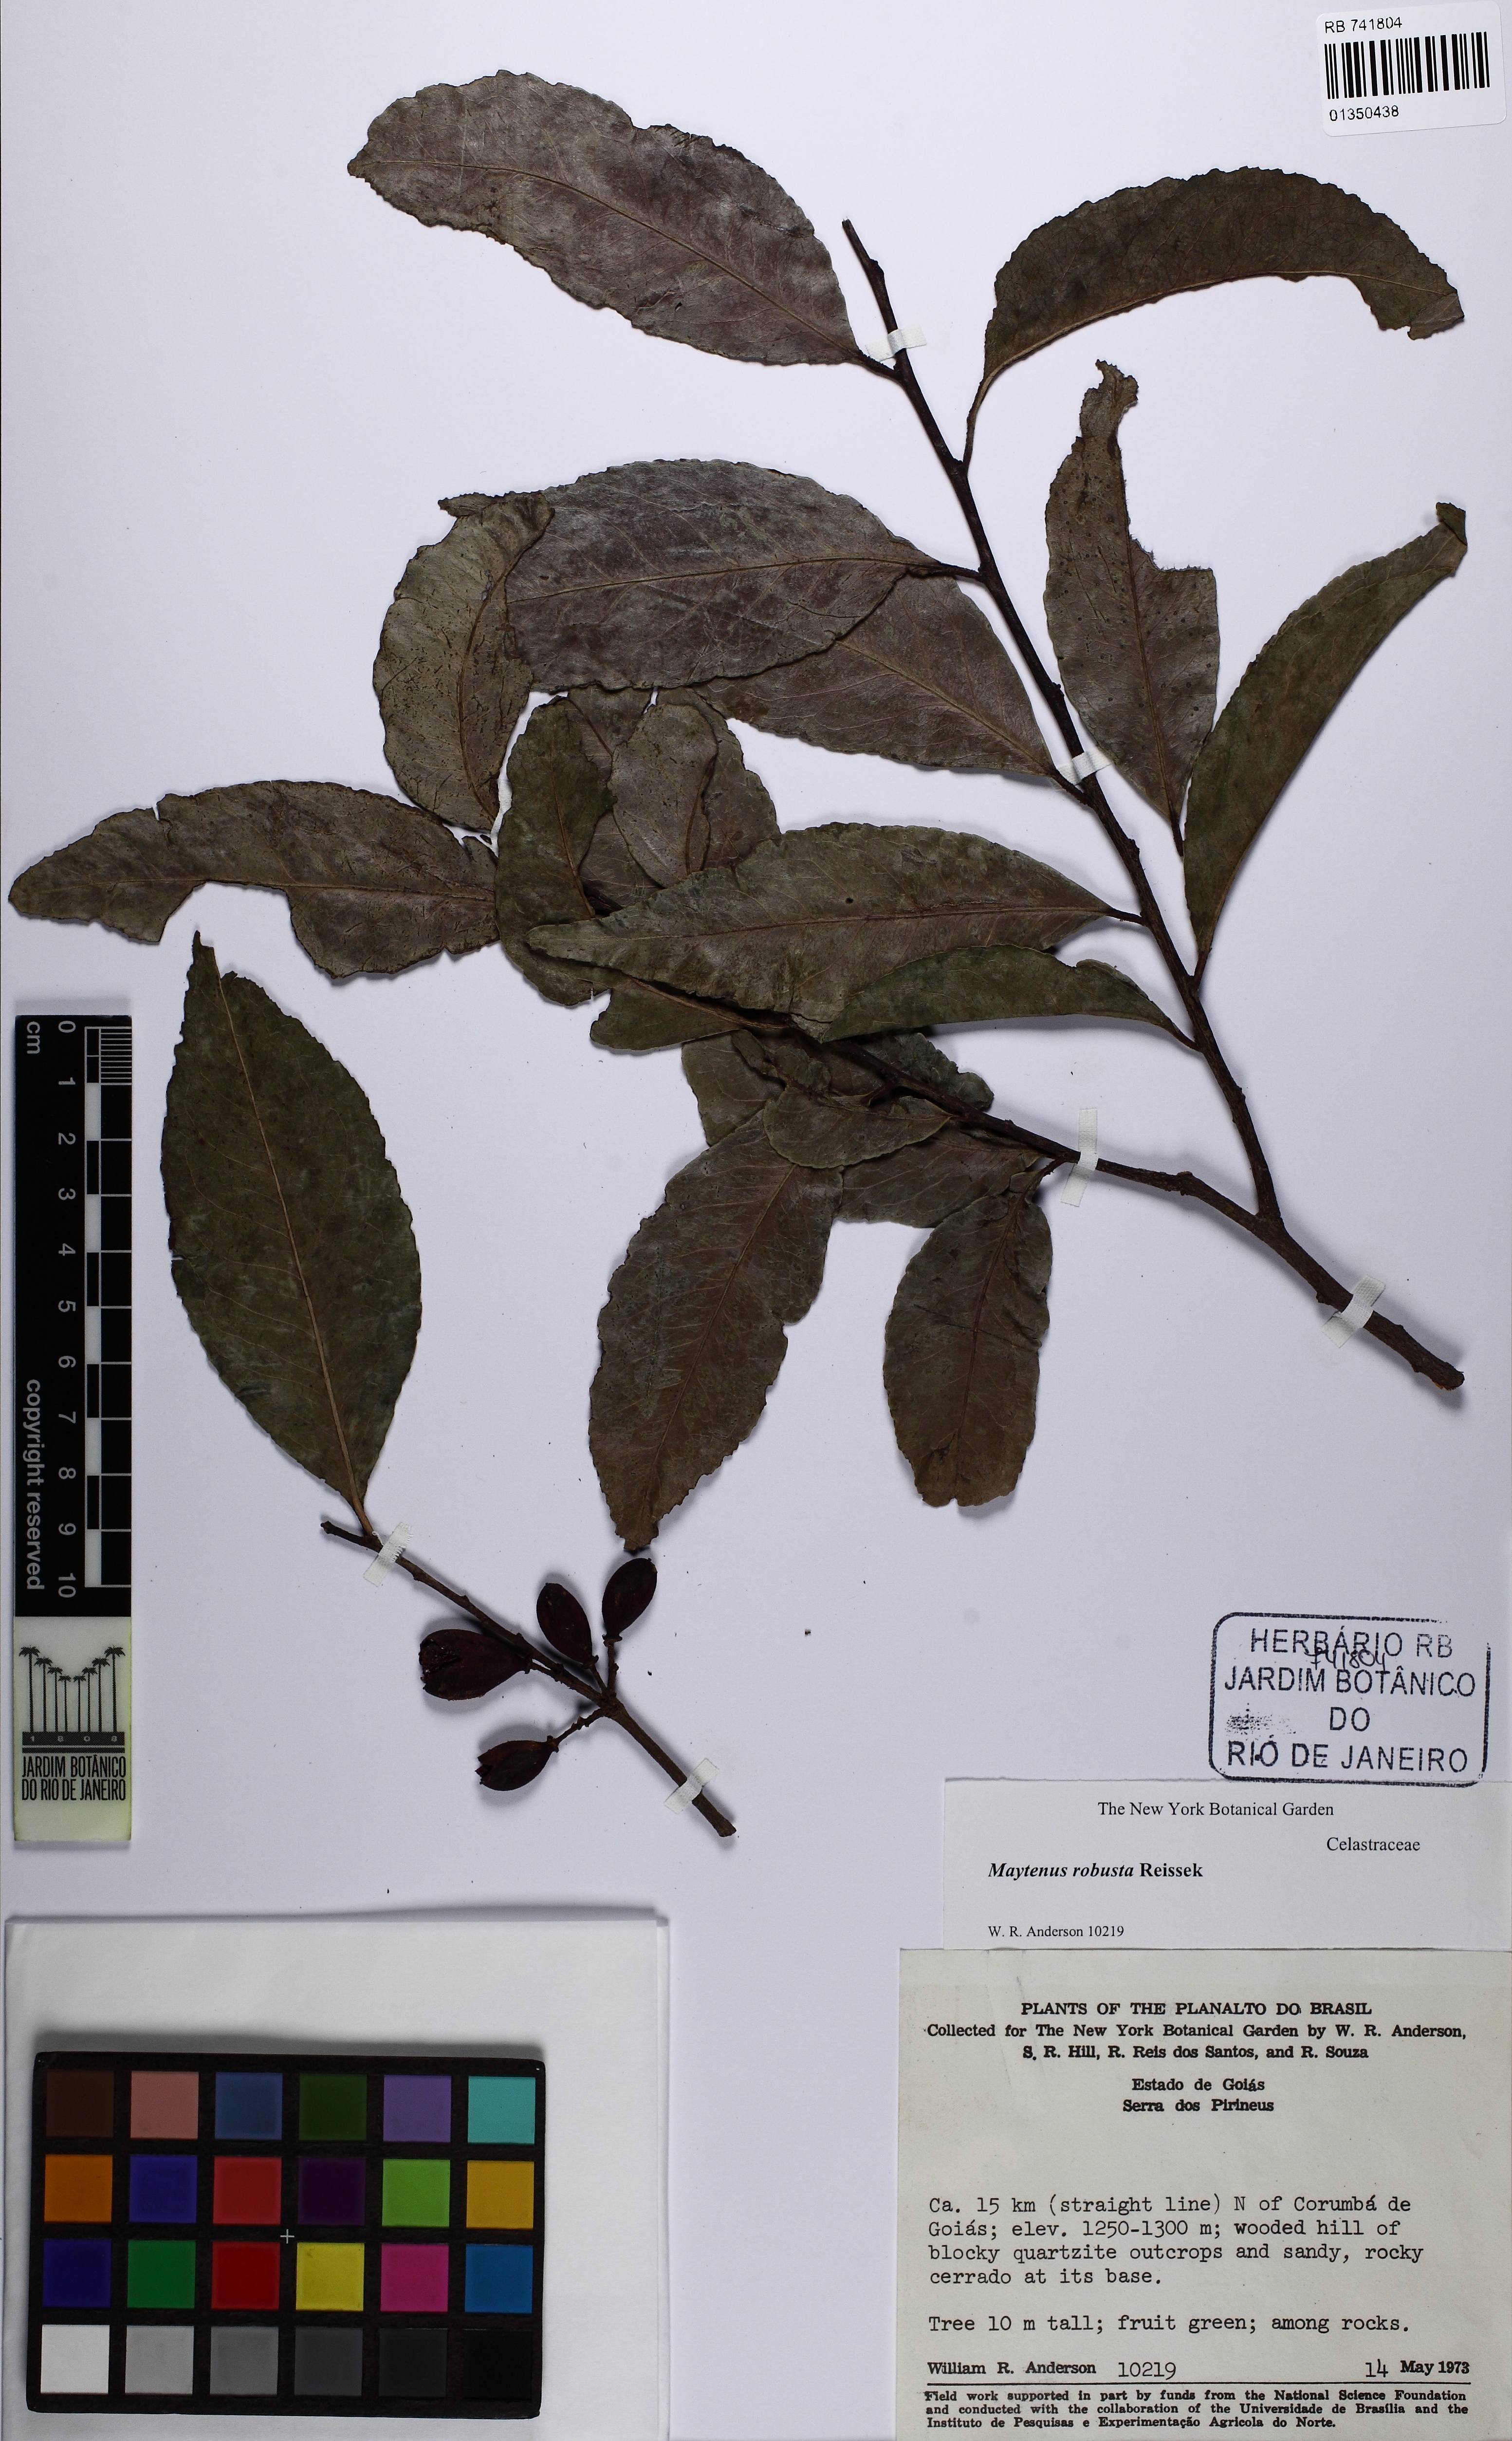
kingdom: Plantae
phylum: Tracheophyta
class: Magnoliopsida
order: Celastrales
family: Celastraceae
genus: Monteverdia
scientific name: Monteverdia robusta
